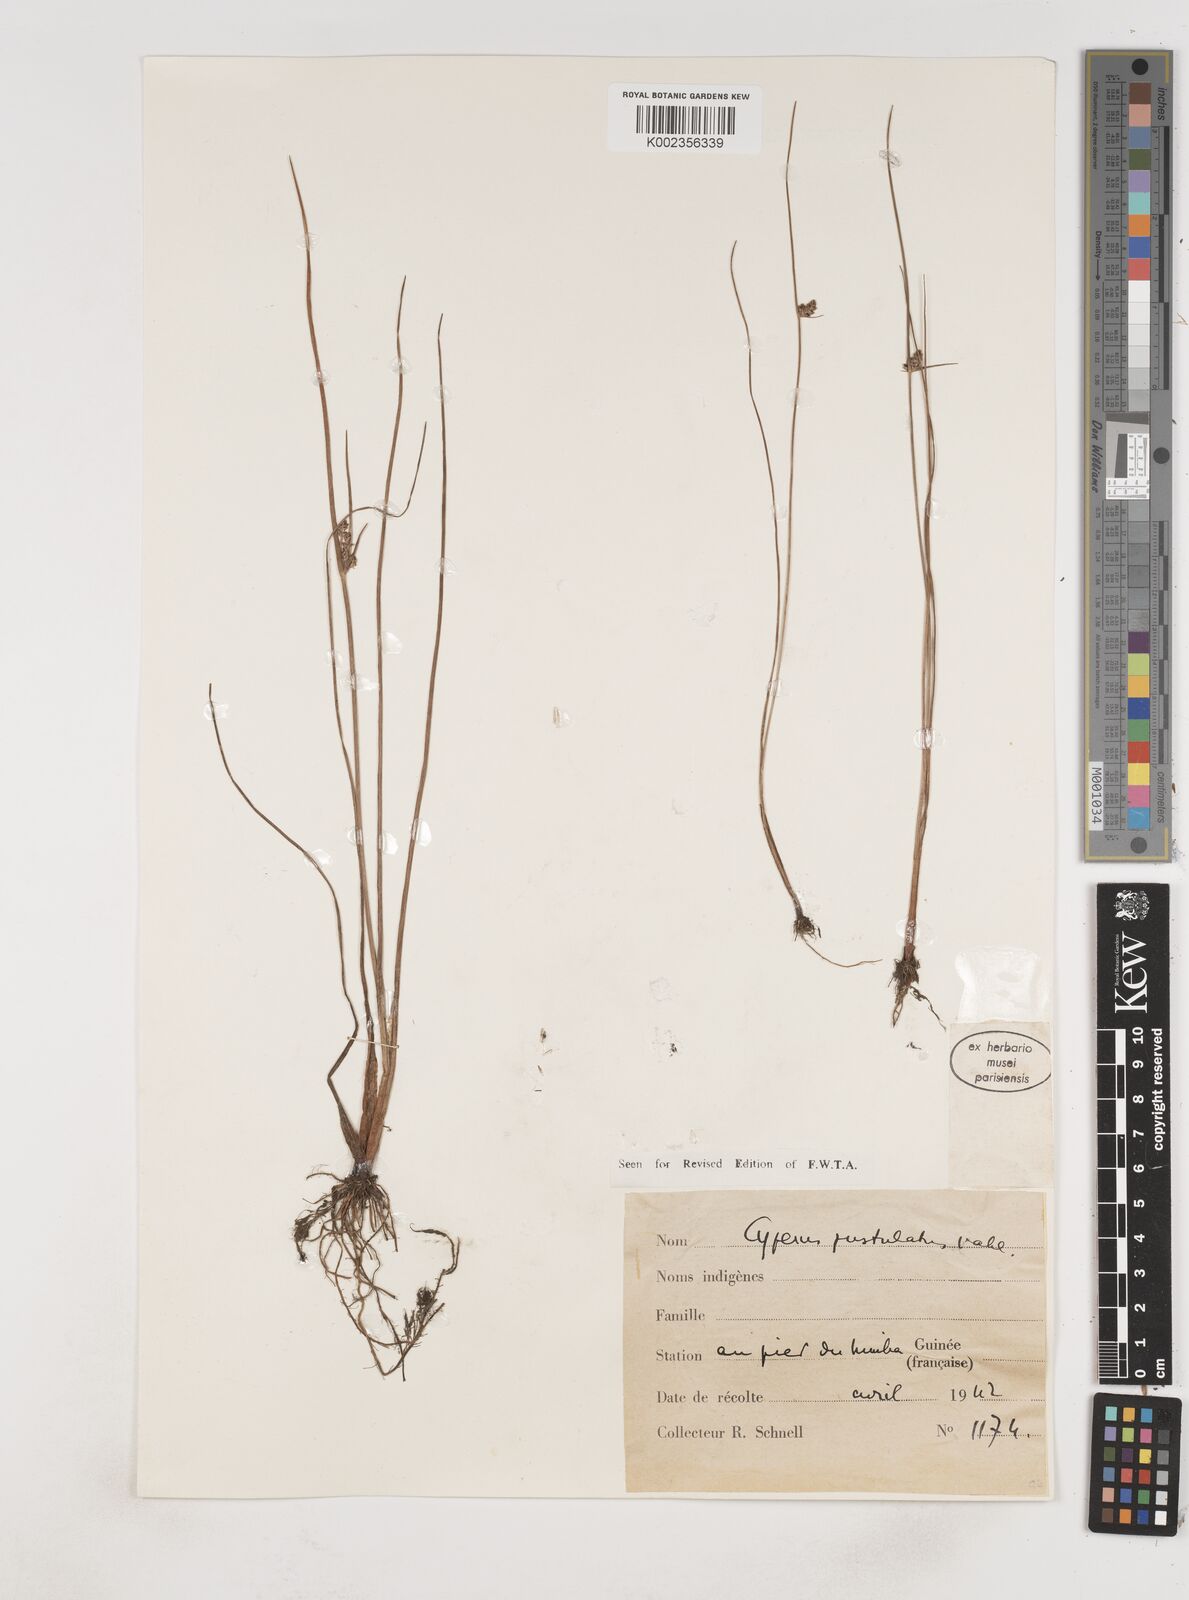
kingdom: Plantae
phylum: Tracheophyta
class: Liliopsida
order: Poales
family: Cyperaceae
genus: Cyperus
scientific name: Cyperus pustulatus
